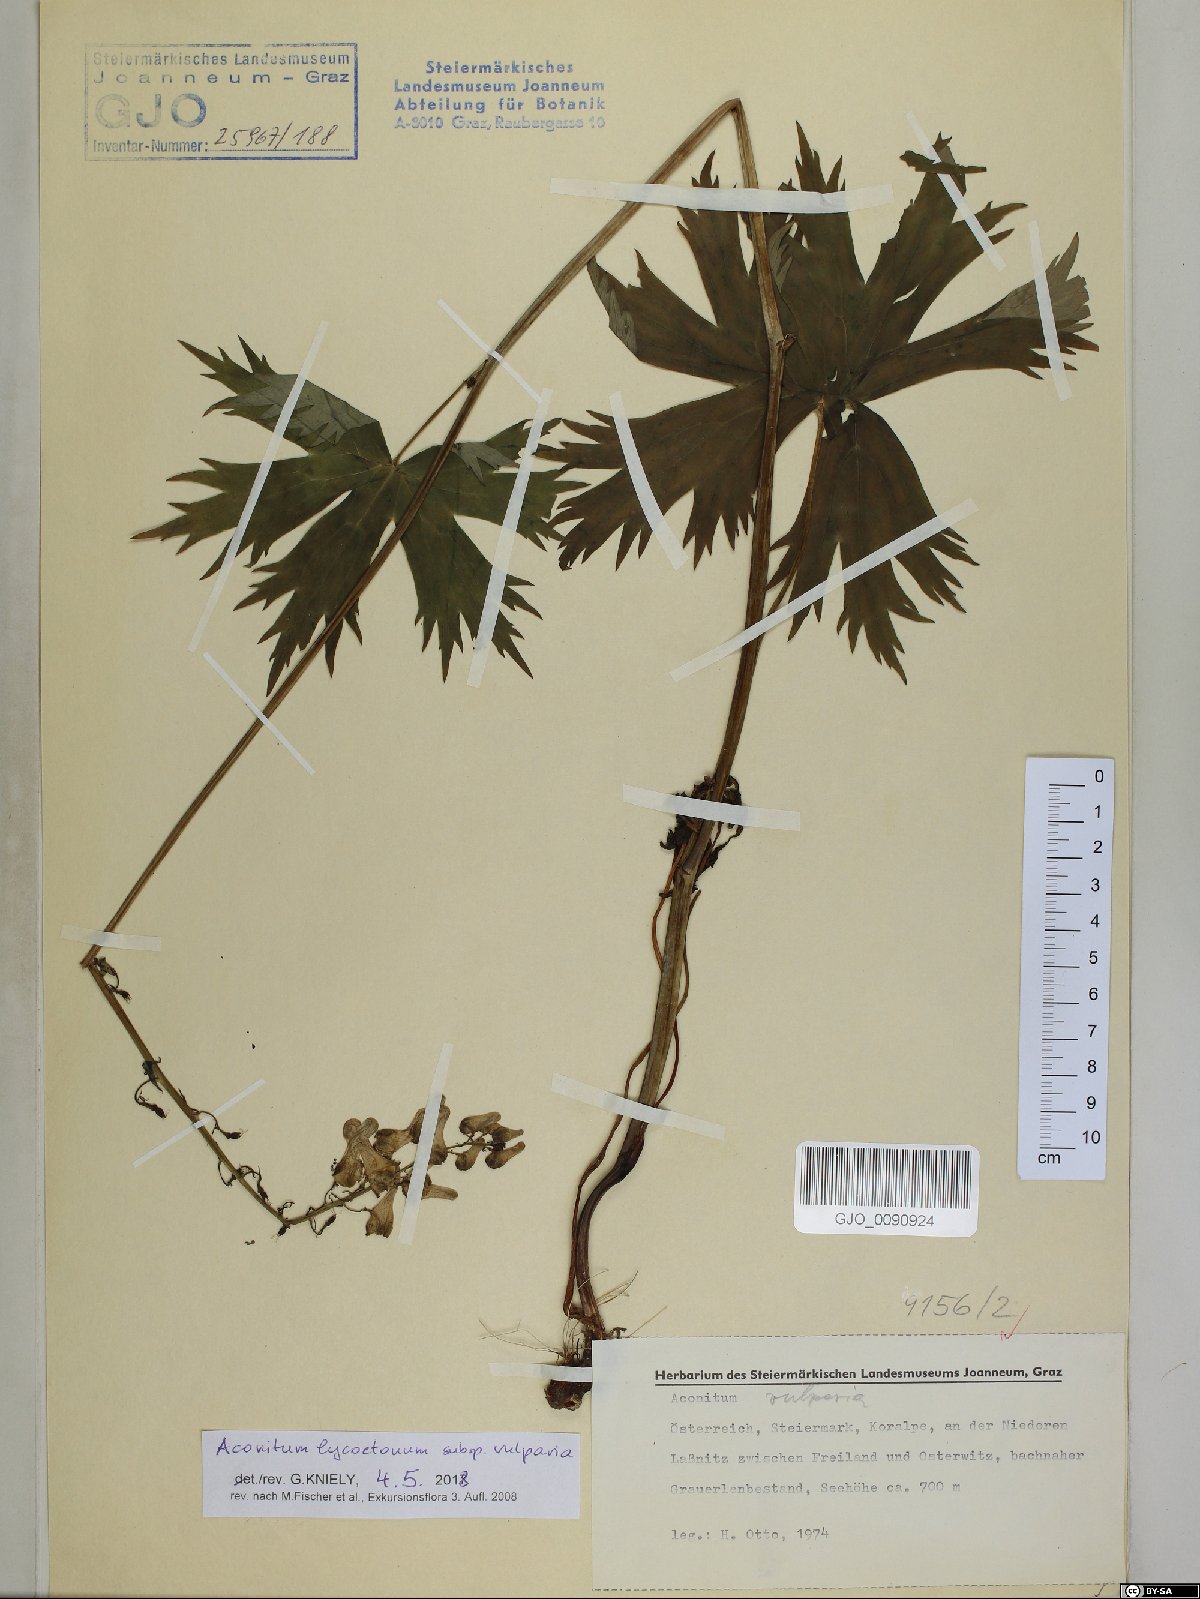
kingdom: Plantae
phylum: Tracheophyta
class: Magnoliopsida
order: Ranunculales
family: Ranunculaceae
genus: Aconitum
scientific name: Aconitum lycoctonum
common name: Wolf's-bane
